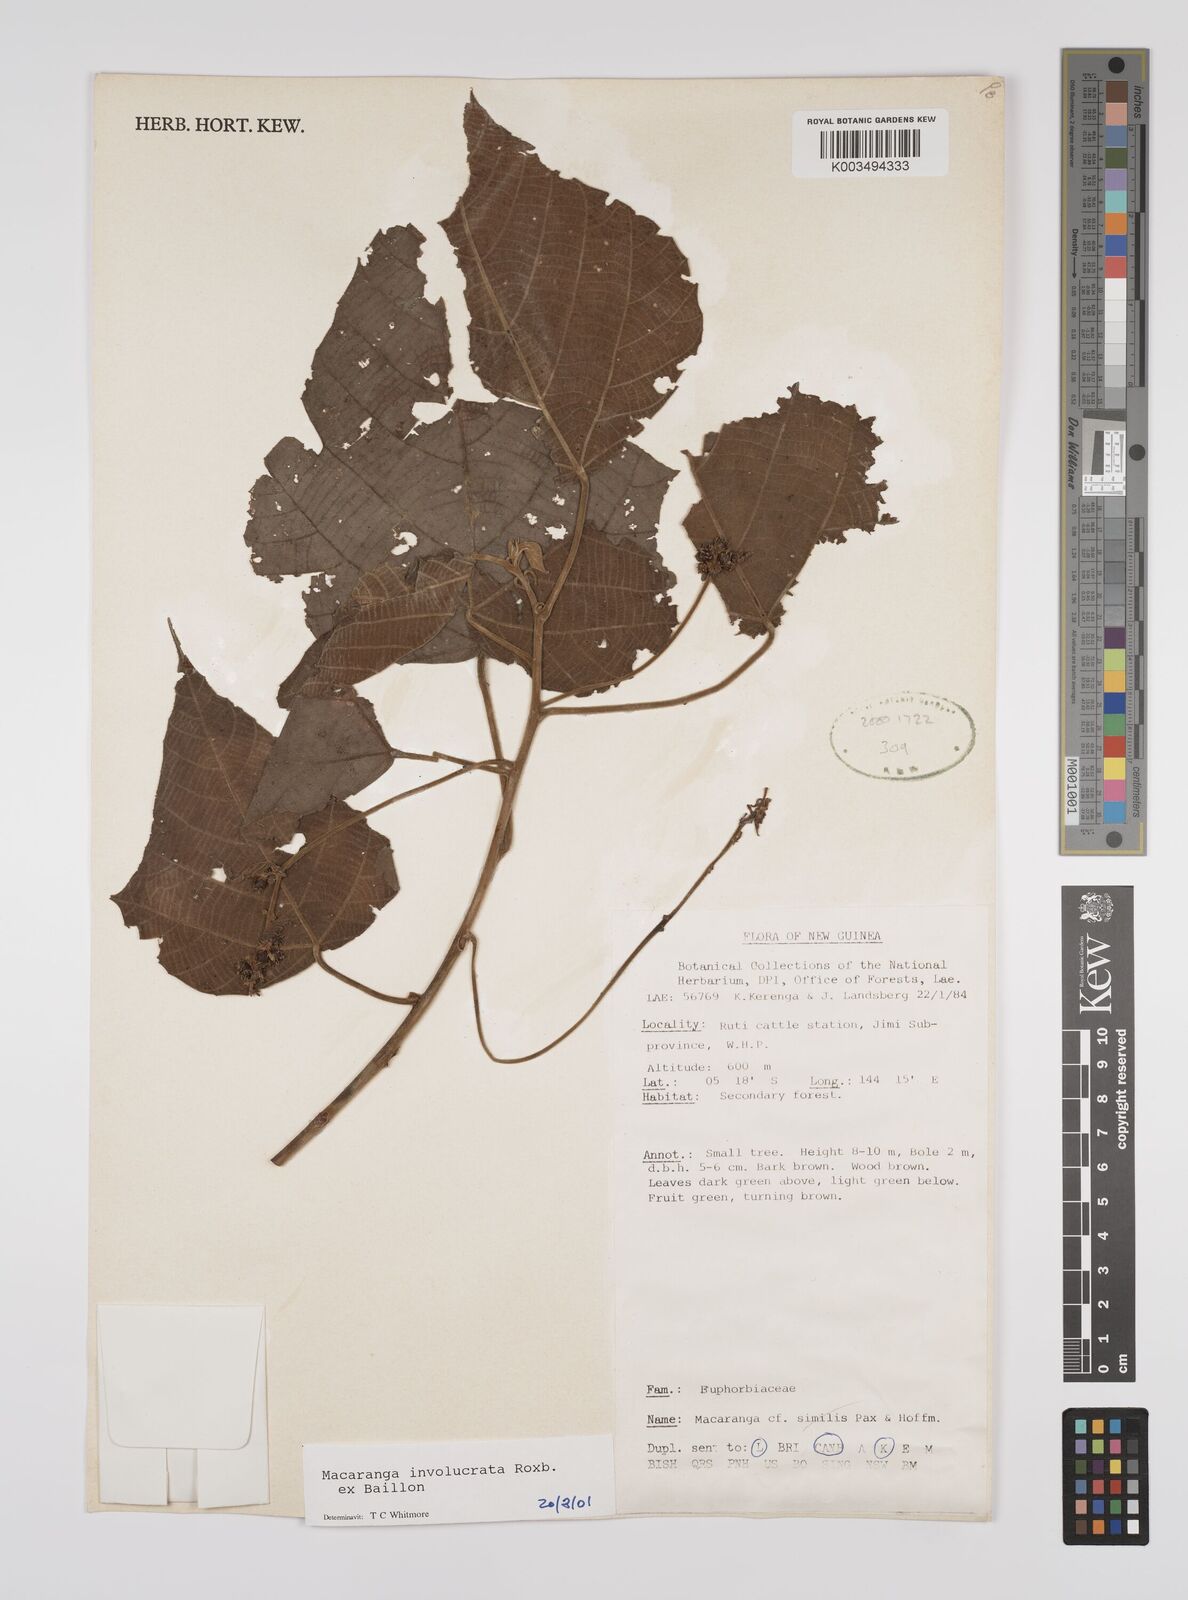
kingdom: Plantae
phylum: Tracheophyta
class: Magnoliopsida
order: Malpighiales
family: Euphorbiaceae
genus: Macaranga
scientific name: Macaranga involucrata
